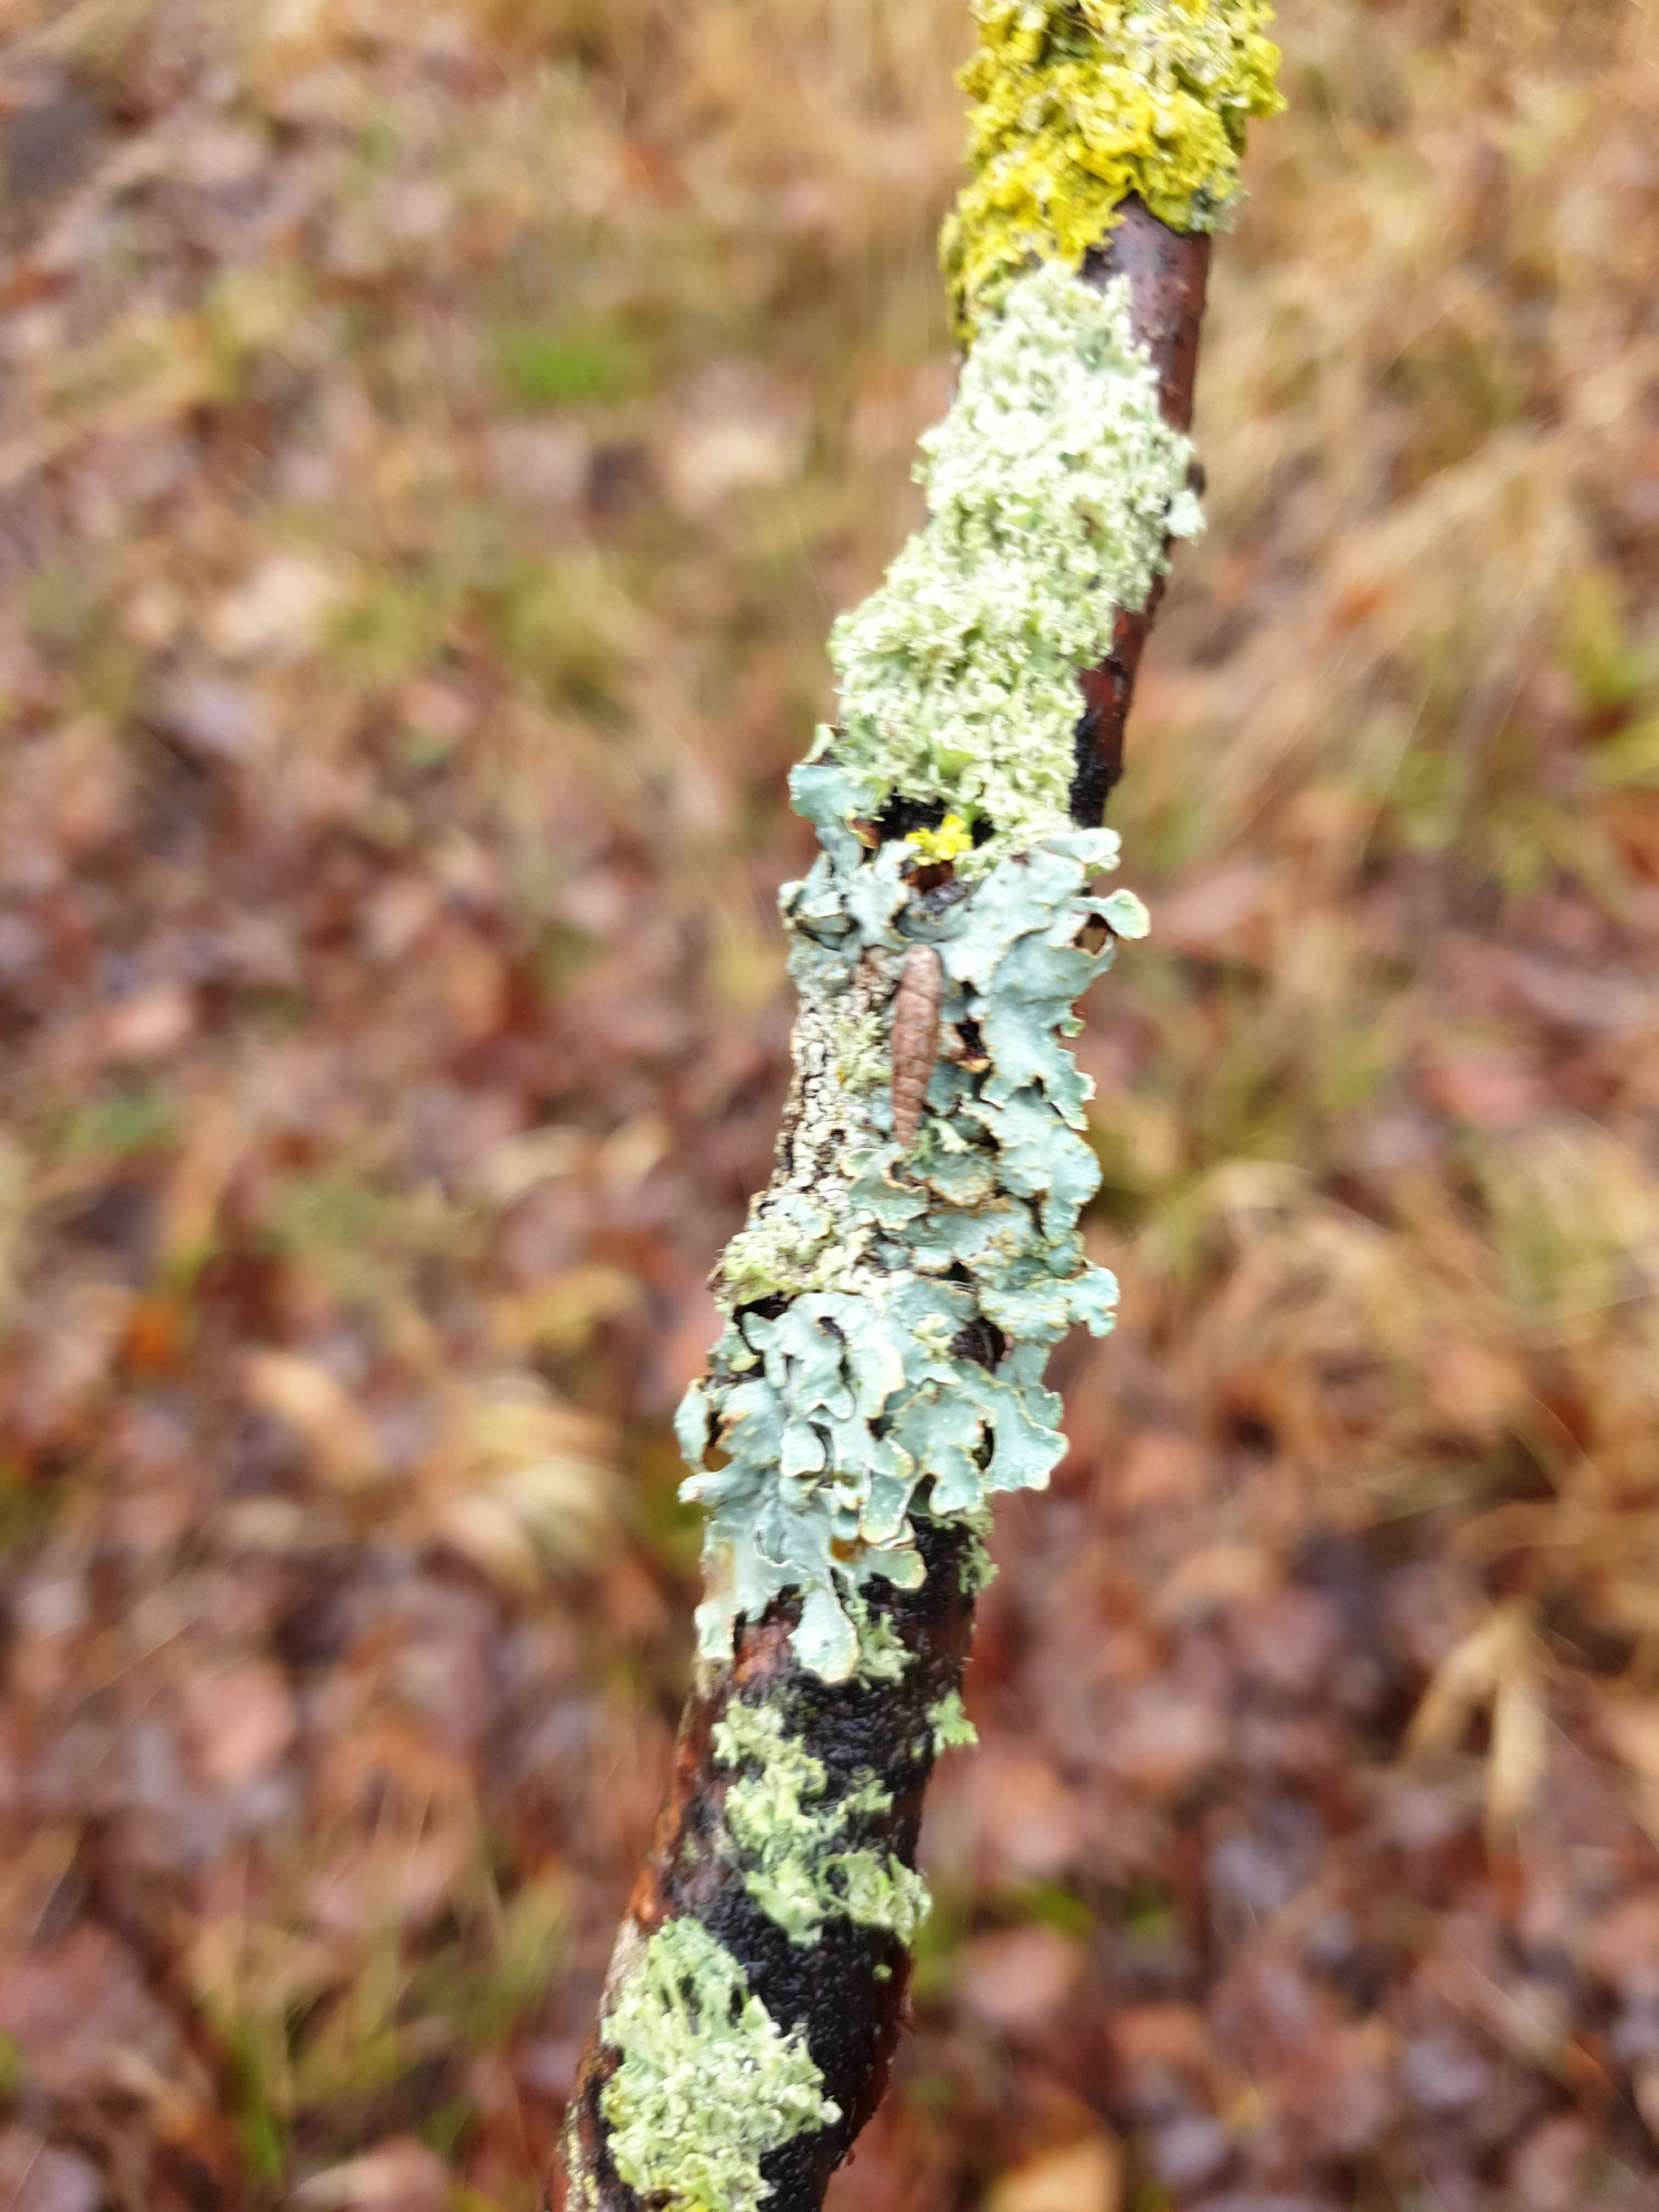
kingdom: Fungi
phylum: Ascomycota
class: Lecanoromycetes
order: Lecanorales
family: Parmeliaceae
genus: Parmelia
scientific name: Parmelia sulcata
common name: rynket skållav
